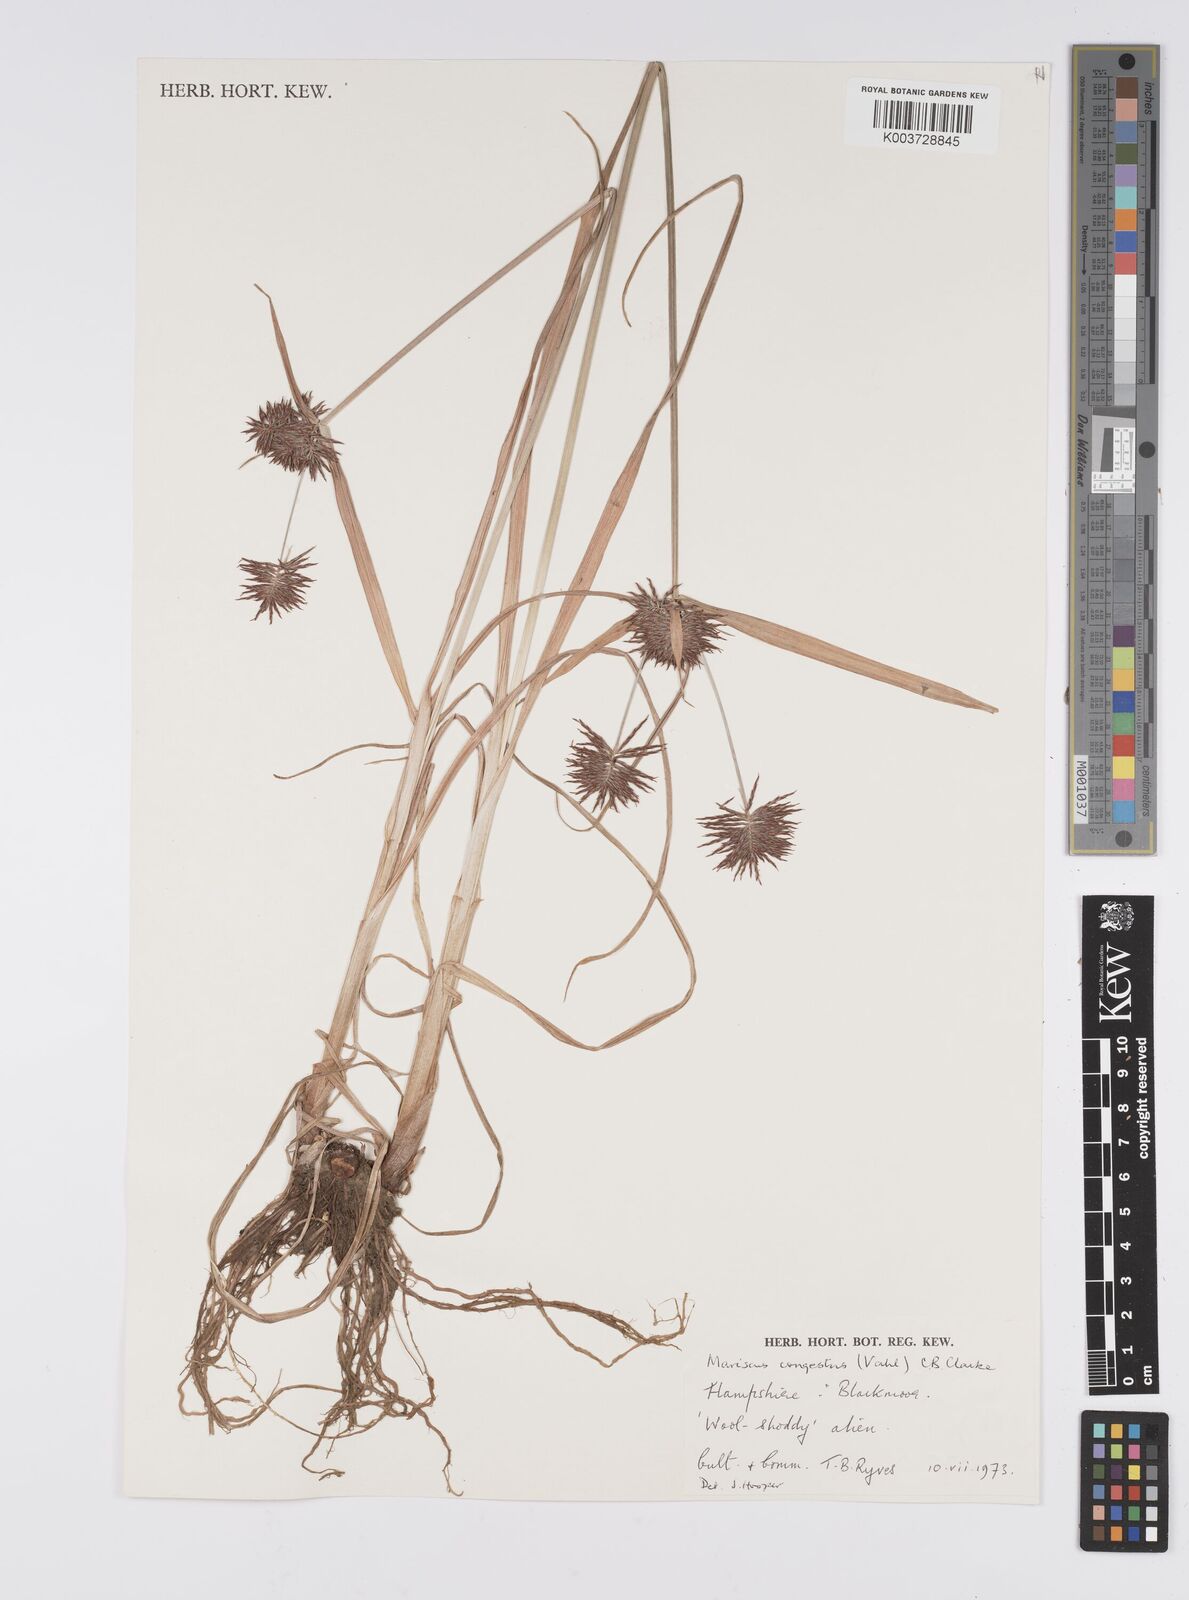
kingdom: Plantae
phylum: Tracheophyta
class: Liliopsida
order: Poales
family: Cyperaceae
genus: Cyperus
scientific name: Cyperus congestus
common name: Dense flat sedge
